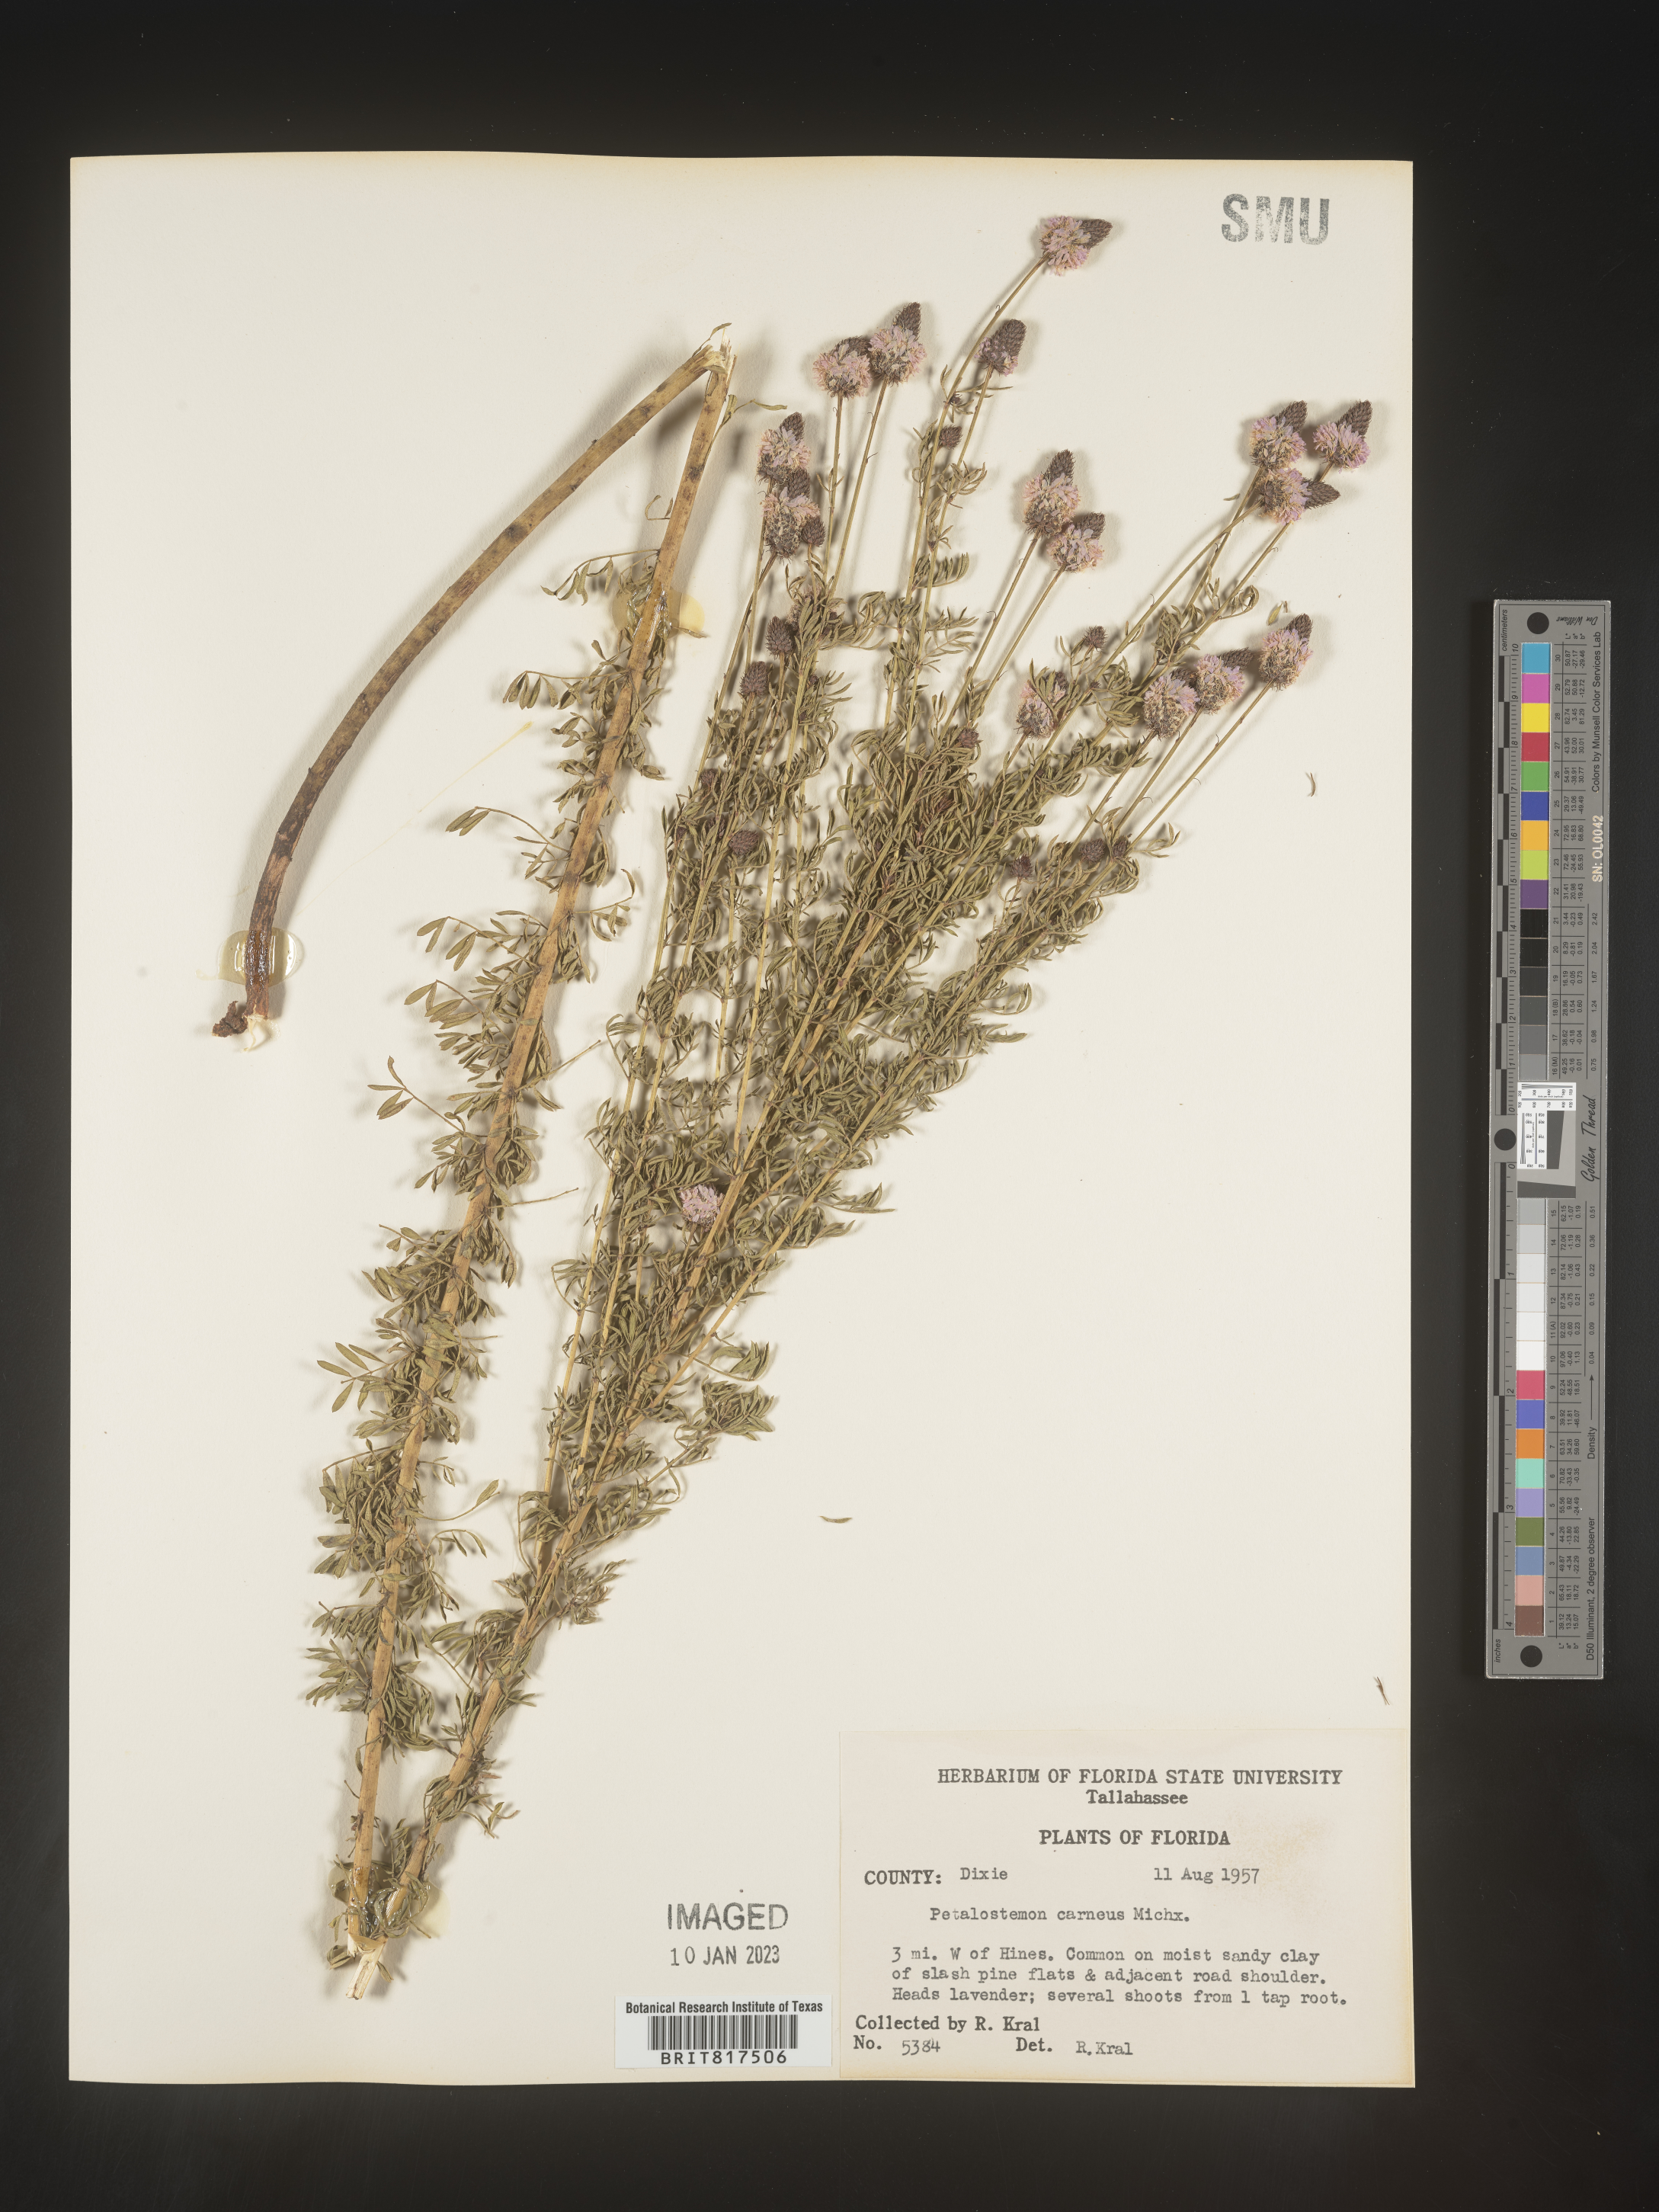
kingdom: Plantae
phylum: Tracheophyta
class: Magnoliopsida
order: Fabales
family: Fabaceae
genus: Dalea
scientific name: Dalea carnea
